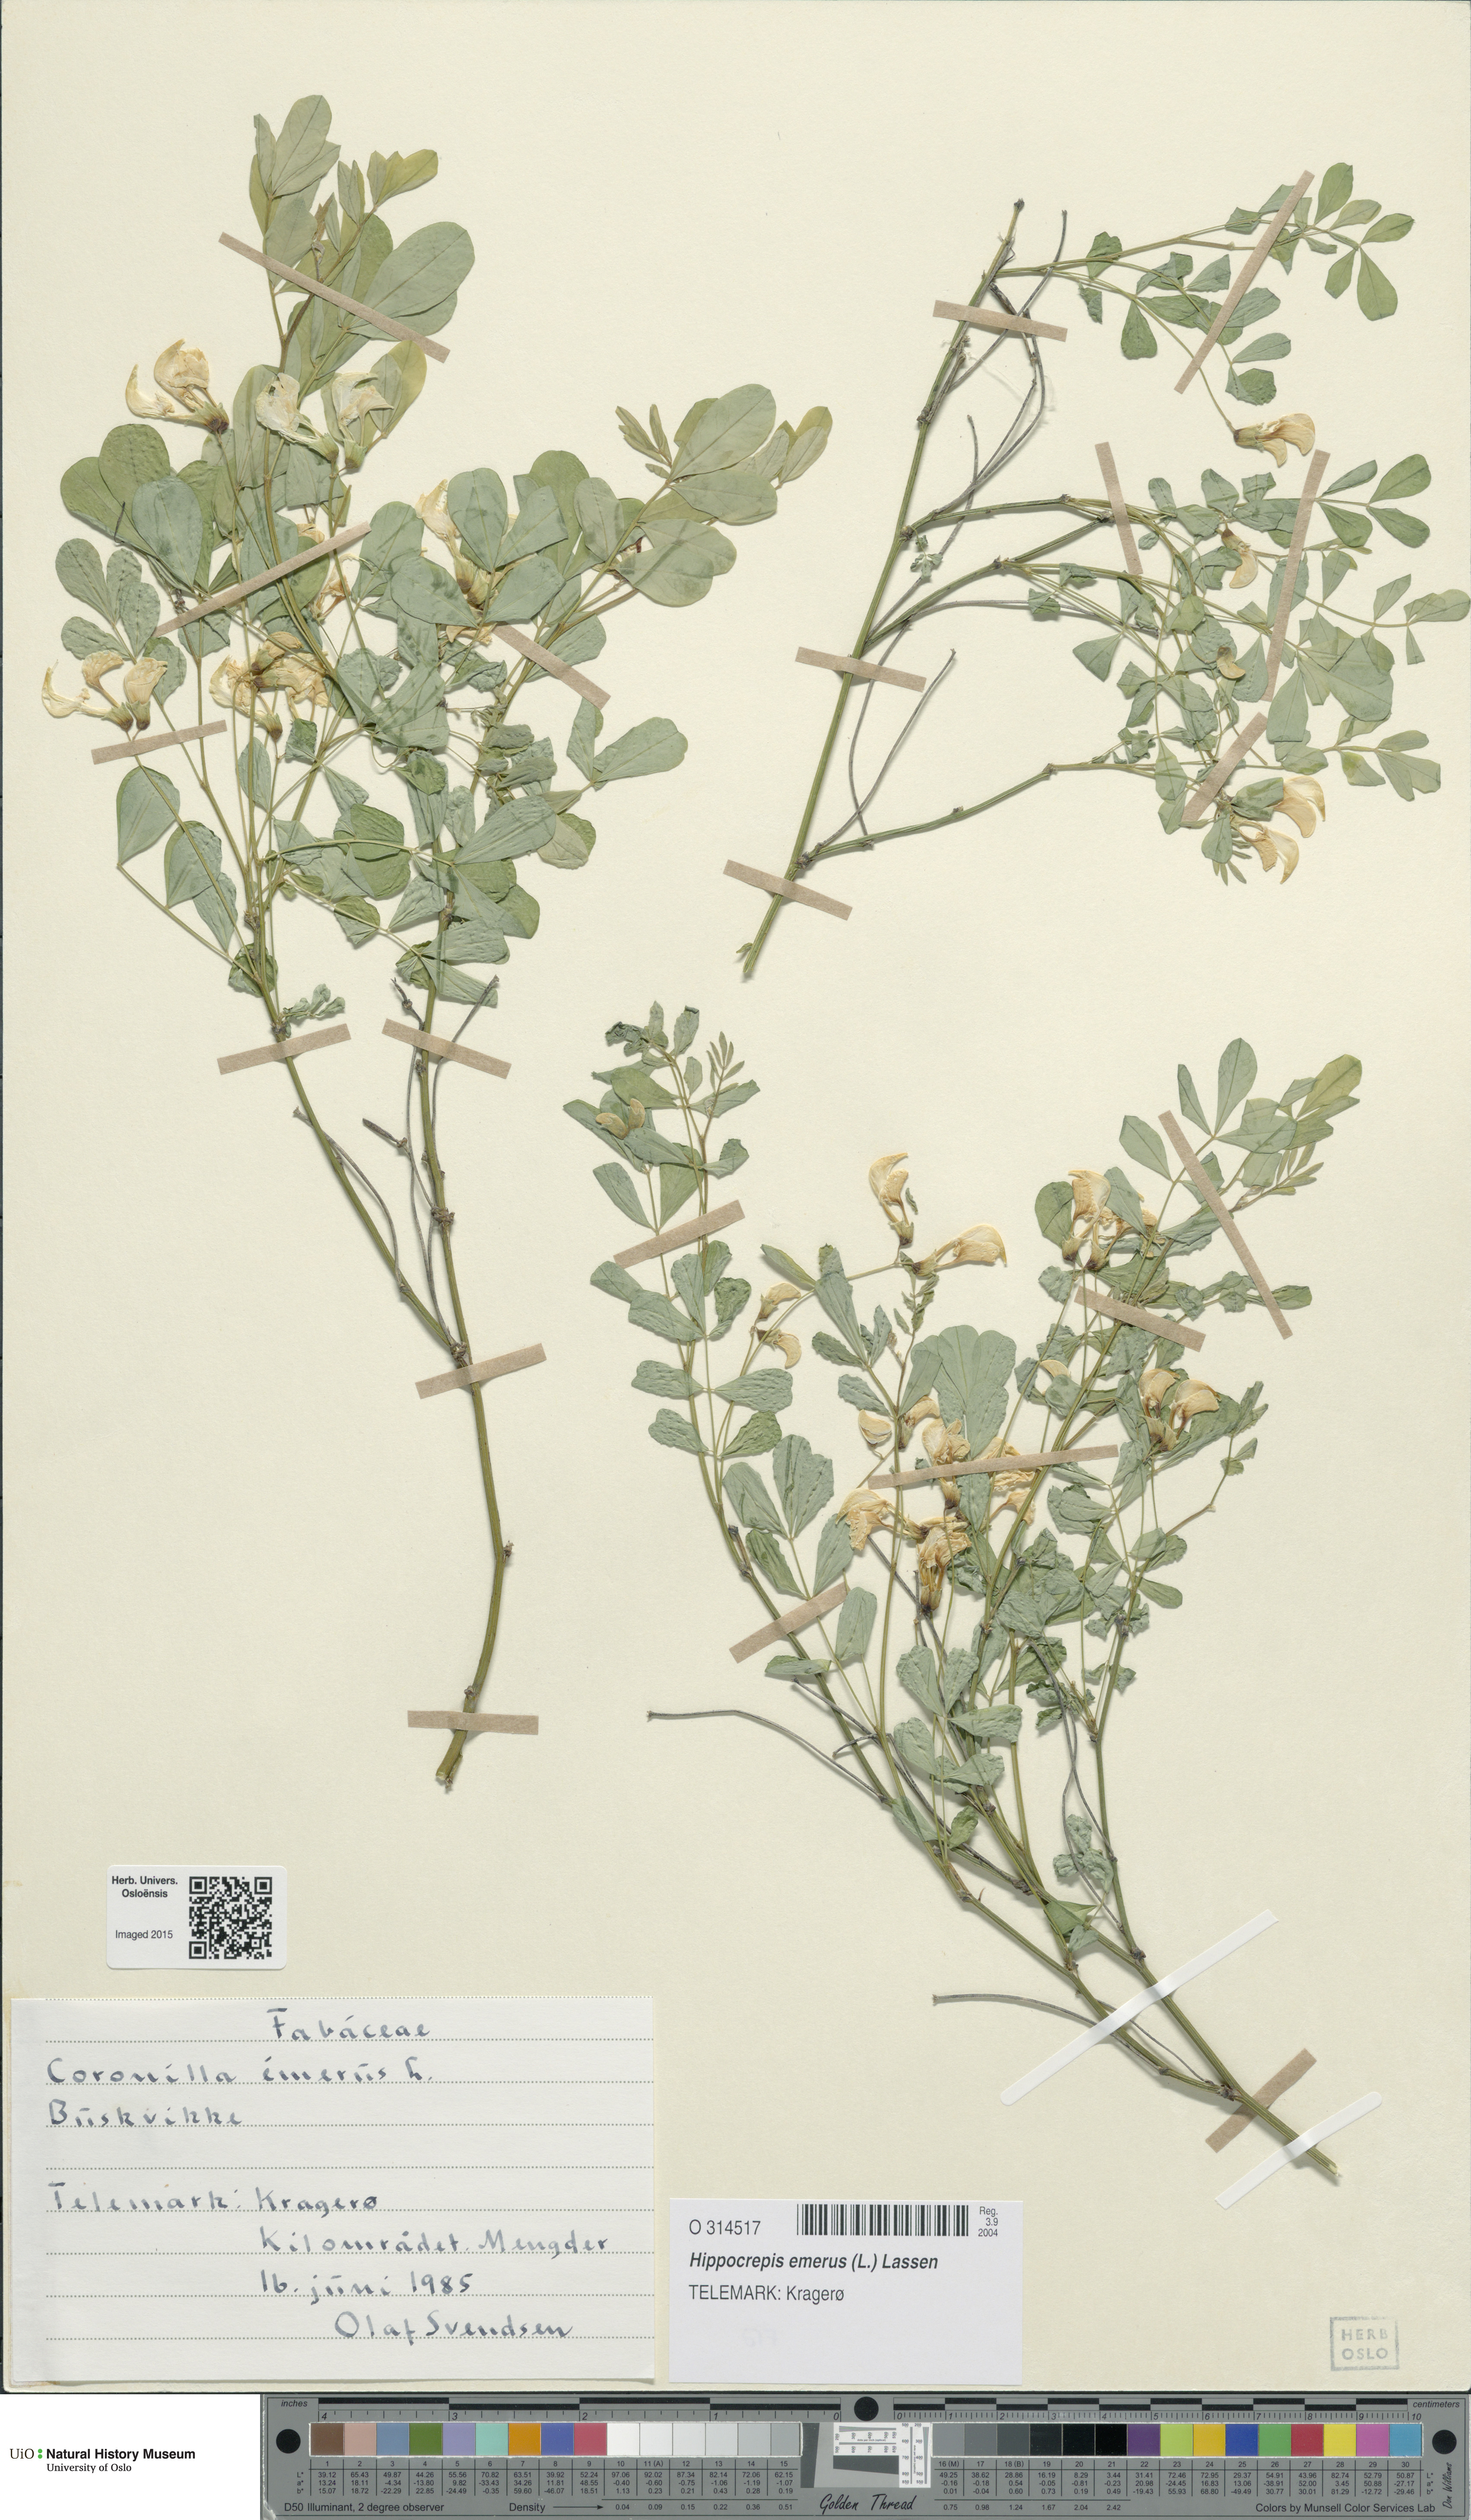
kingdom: Plantae
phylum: Tracheophyta
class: Magnoliopsida
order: Fabales
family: Fabaceae
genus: Hippocrepis
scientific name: Hippocrepis emerus
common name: Scorpion senna
